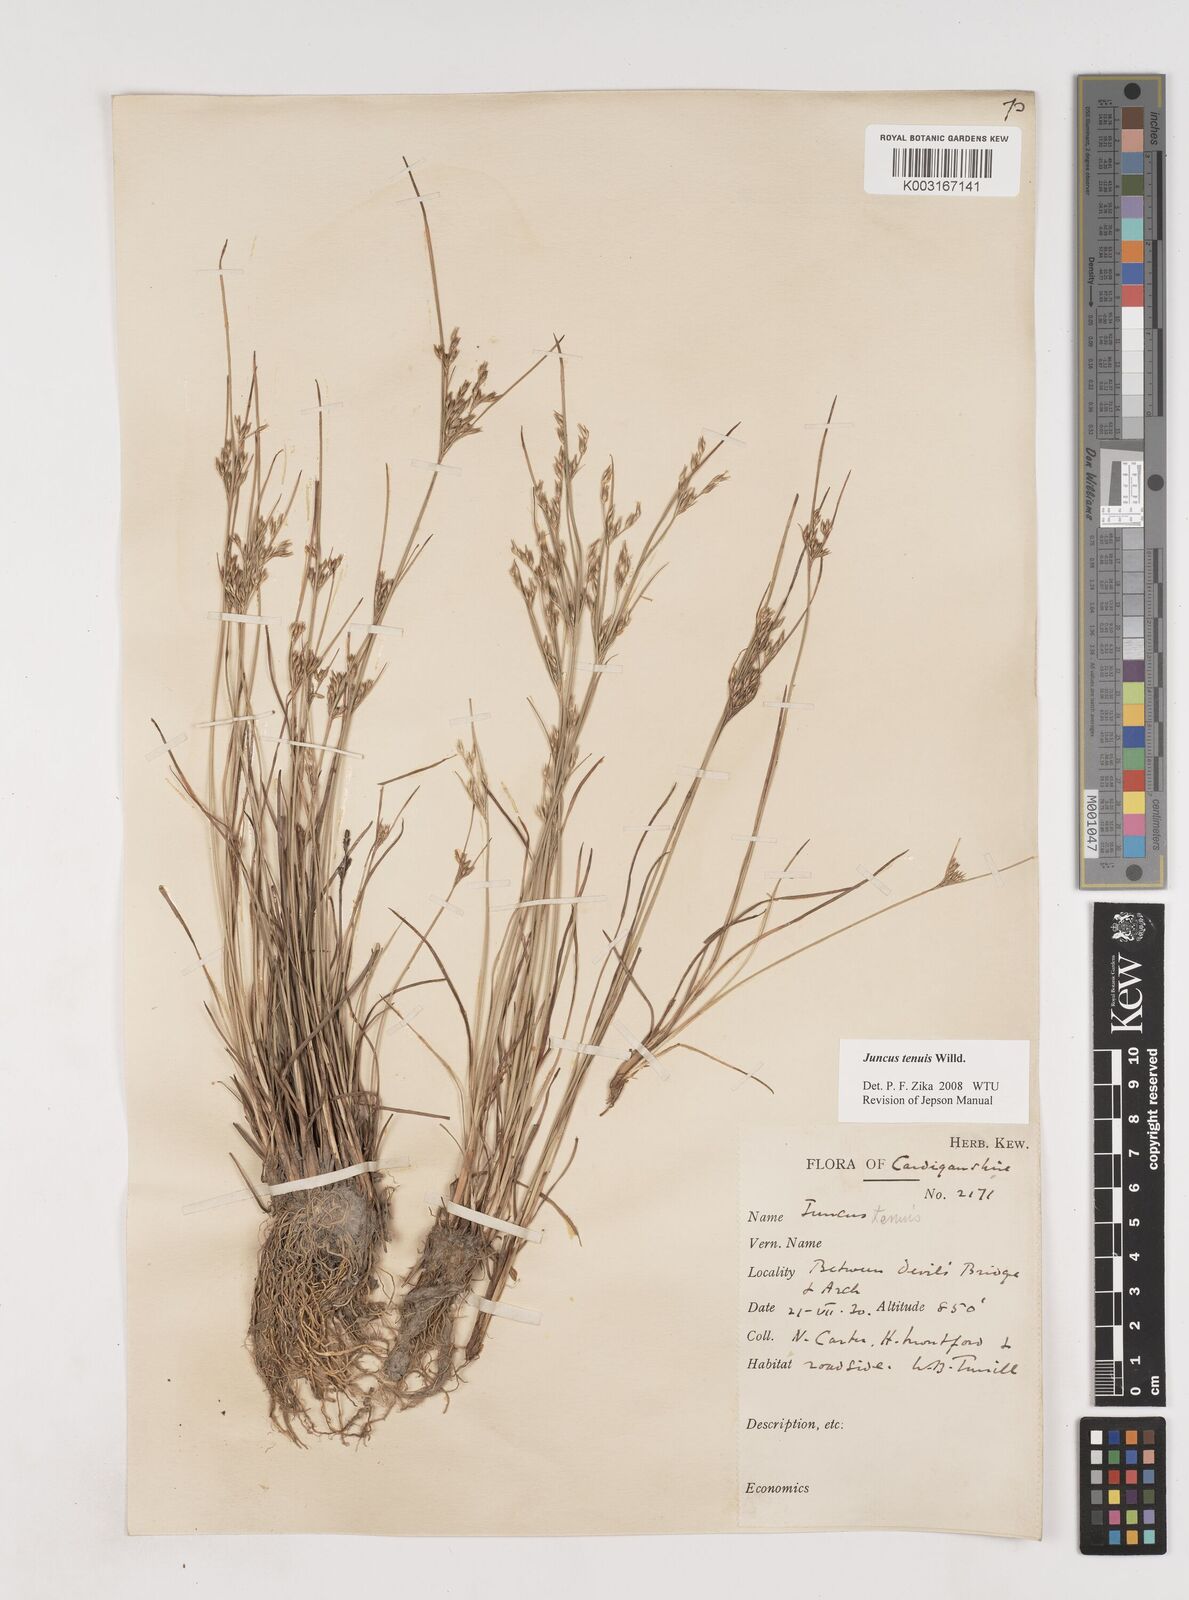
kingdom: Plantae
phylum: Tracheophyta
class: Liliopsida
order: Poales
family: Juncaceae
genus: Juncus
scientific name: Juncus tenuis
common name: Slender rush
